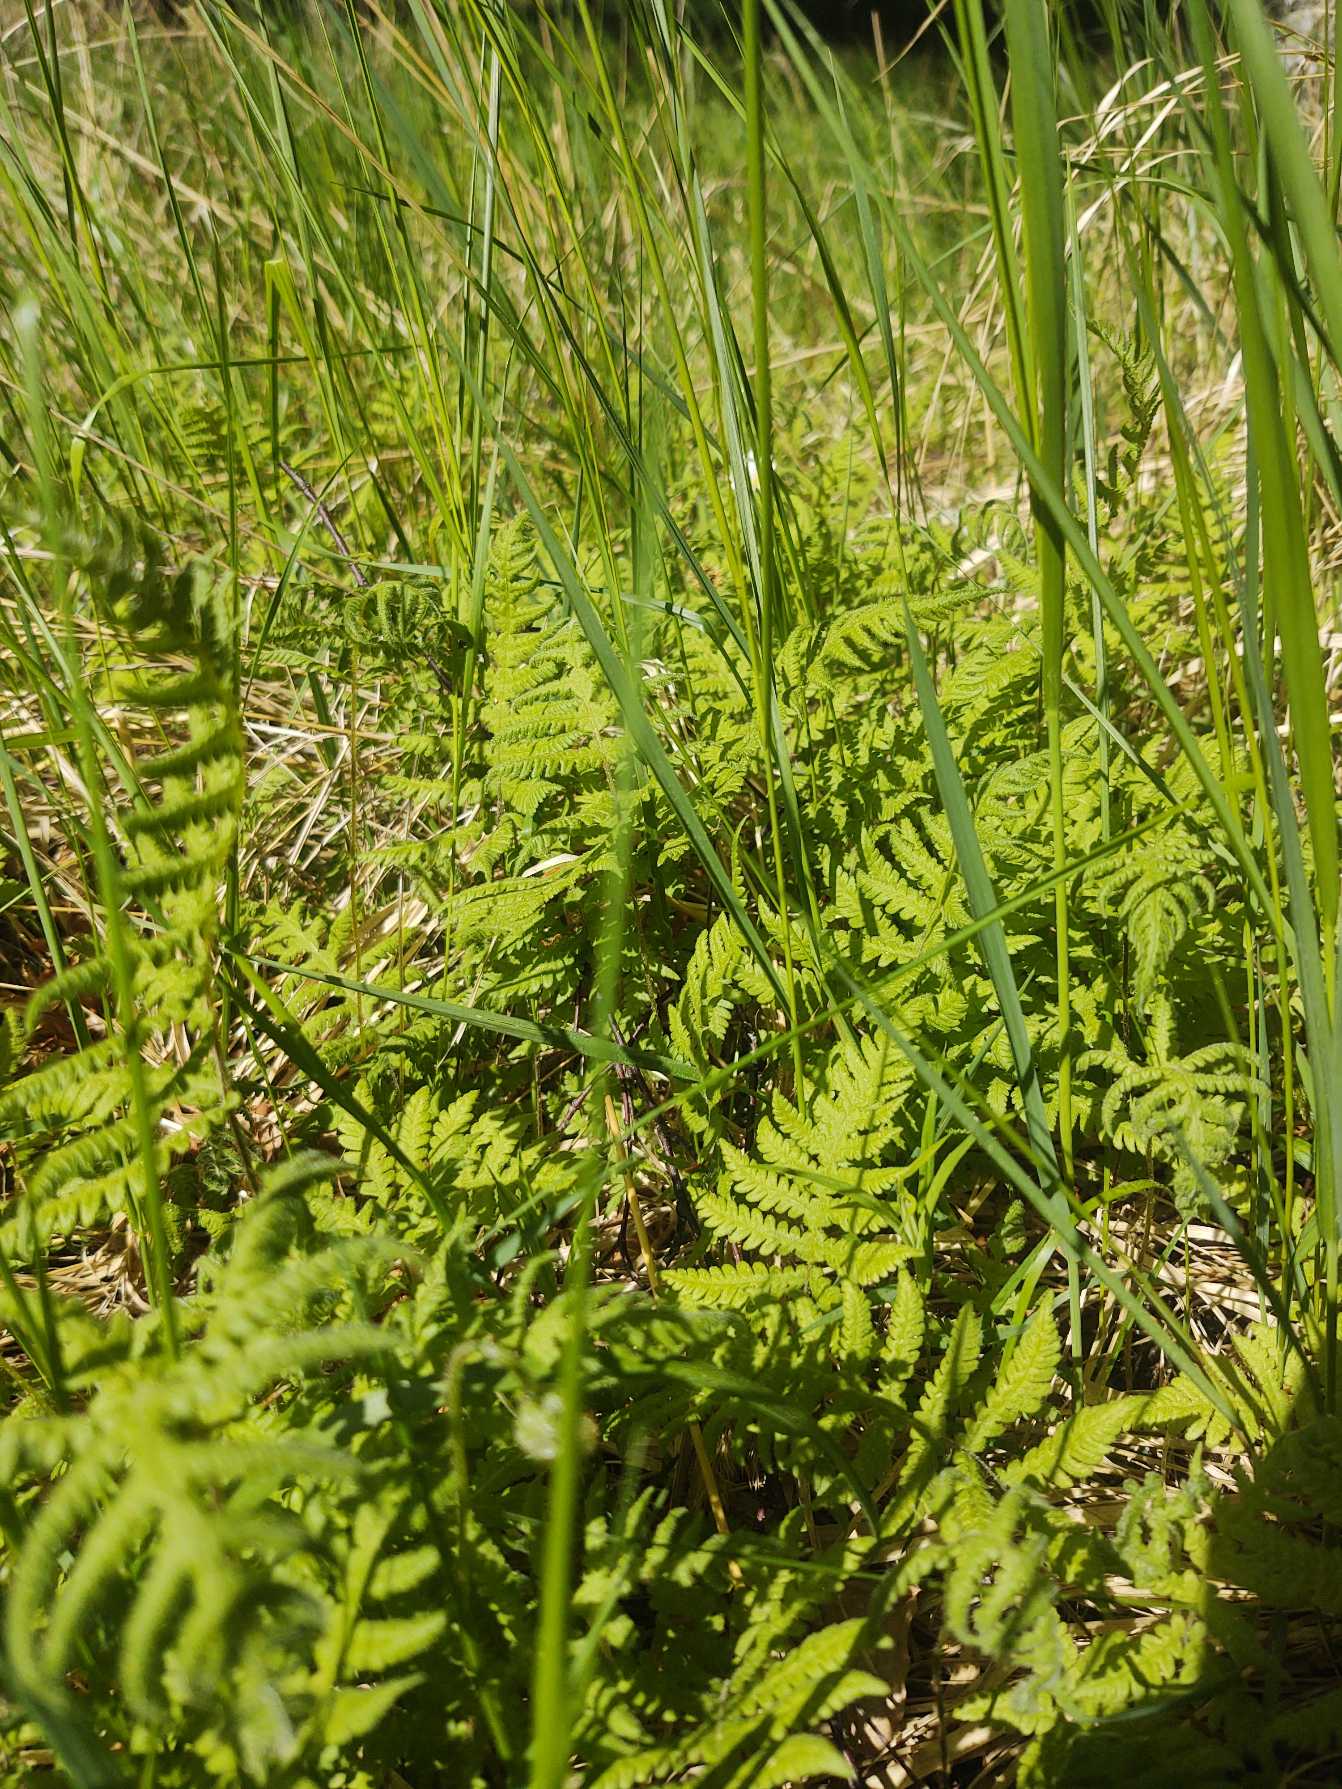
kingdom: Plantae
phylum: Tracheophyta
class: Polypodiopsida
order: Polypodiales
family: Thelypteridaceae
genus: Phegopteris
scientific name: Phegopteris connectilis
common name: Dunet egebregne
